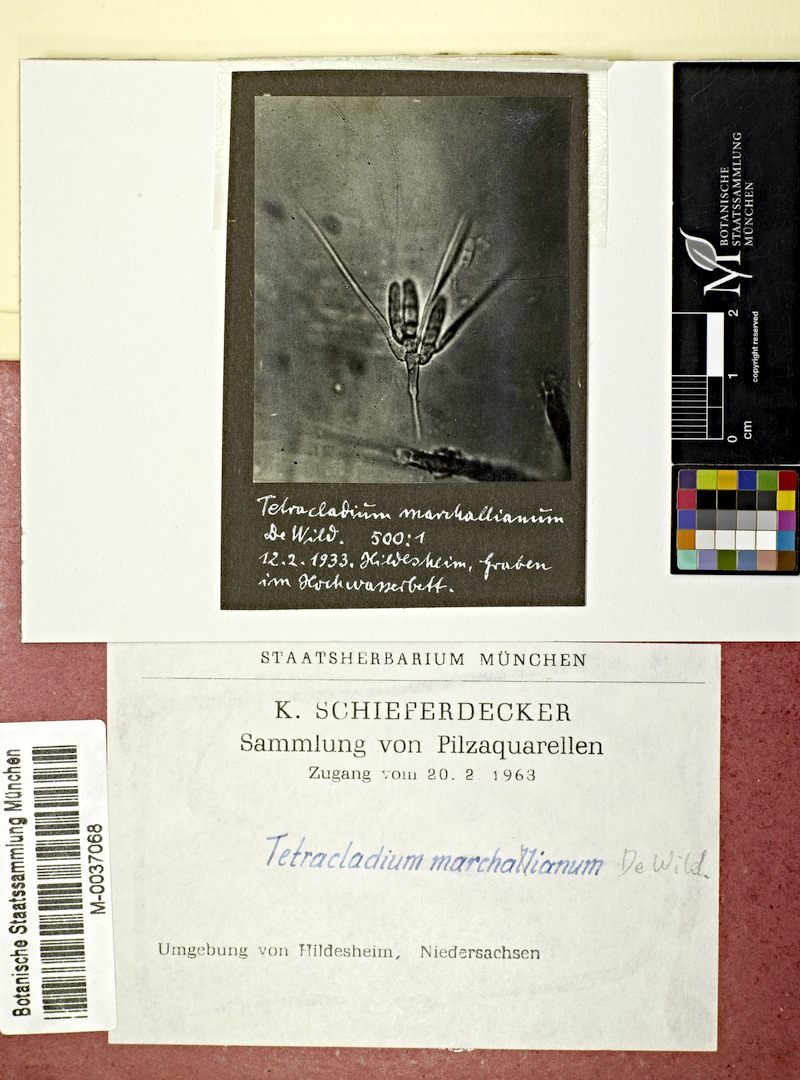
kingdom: Fungi
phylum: Ascomycota
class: Leotiomycetes
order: Helotiales
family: Helotiaceae
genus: Tetracladium
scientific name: Tetracladium marchalianum
